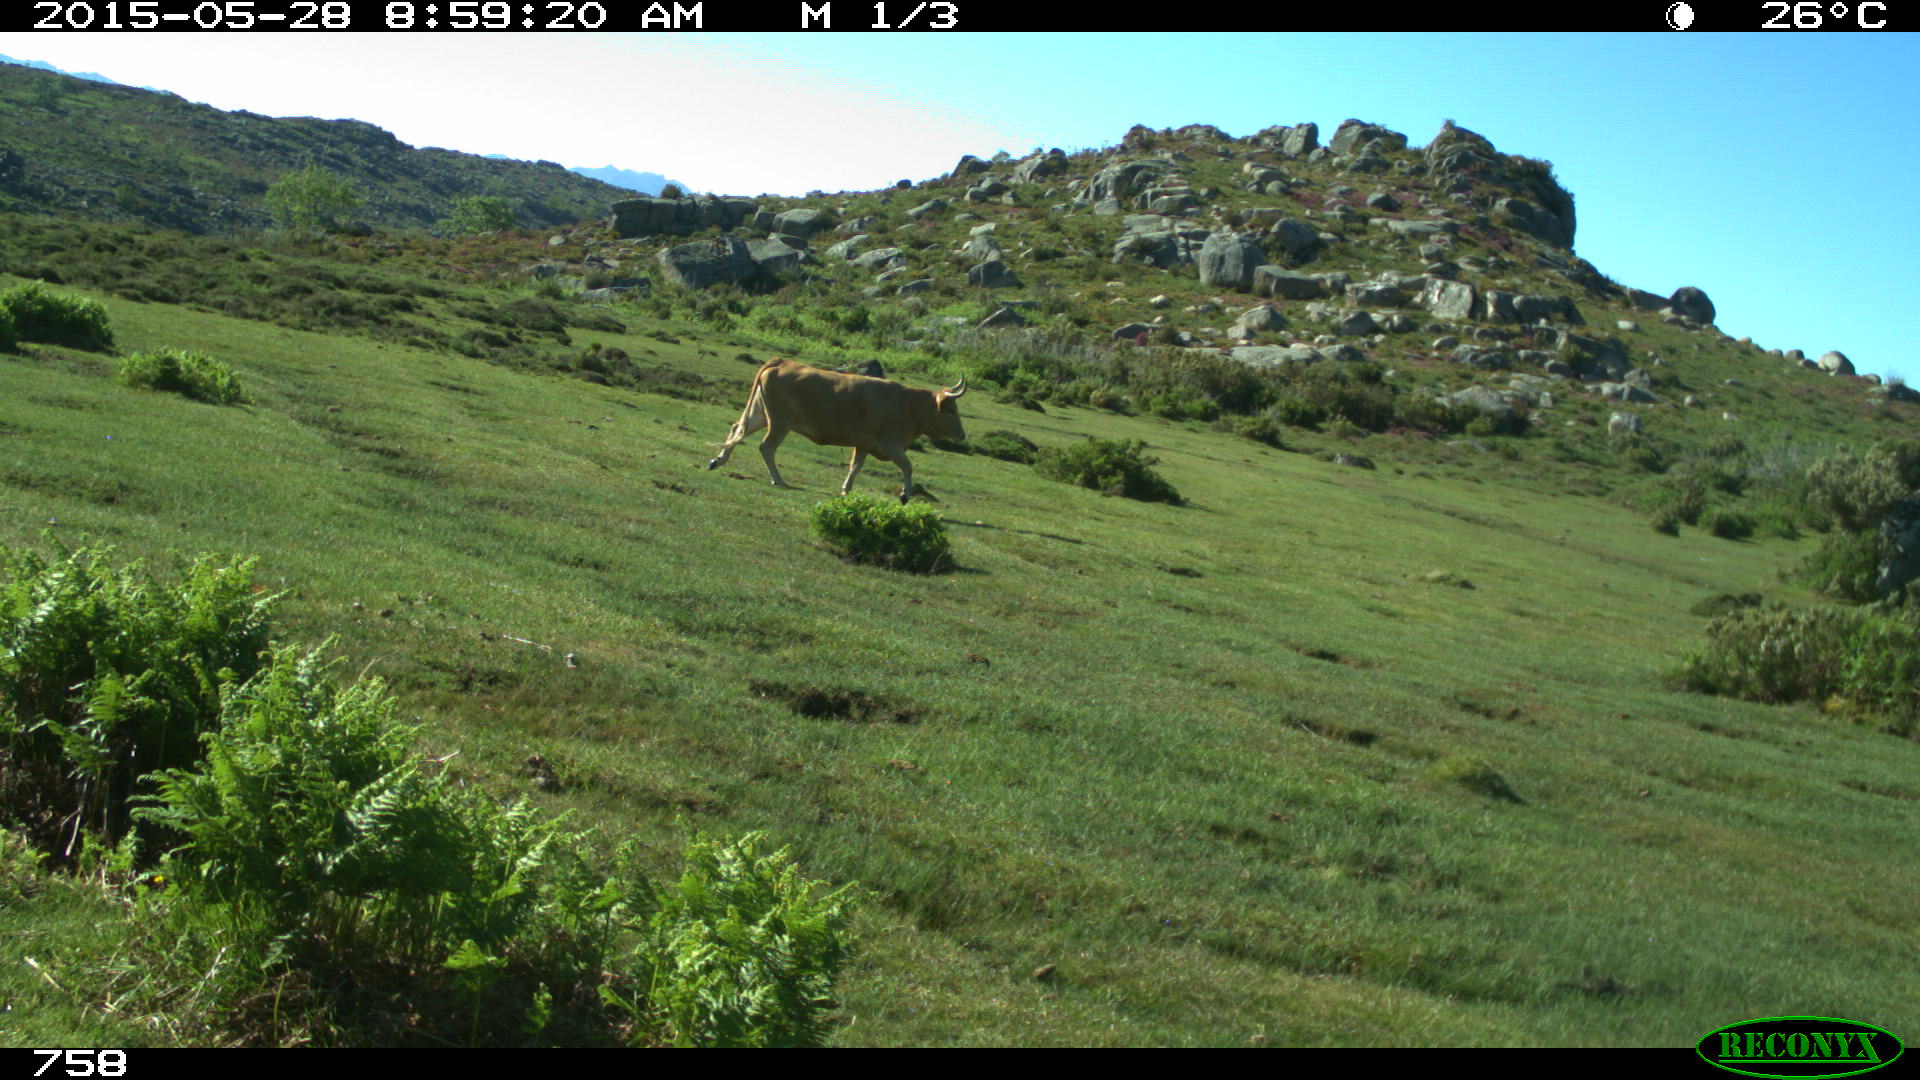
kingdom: Animalia
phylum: Chordata
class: Mammalia
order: Artiodactyla
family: Bovidae
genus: Bos
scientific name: Bos taurus
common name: Domesticated cattle
